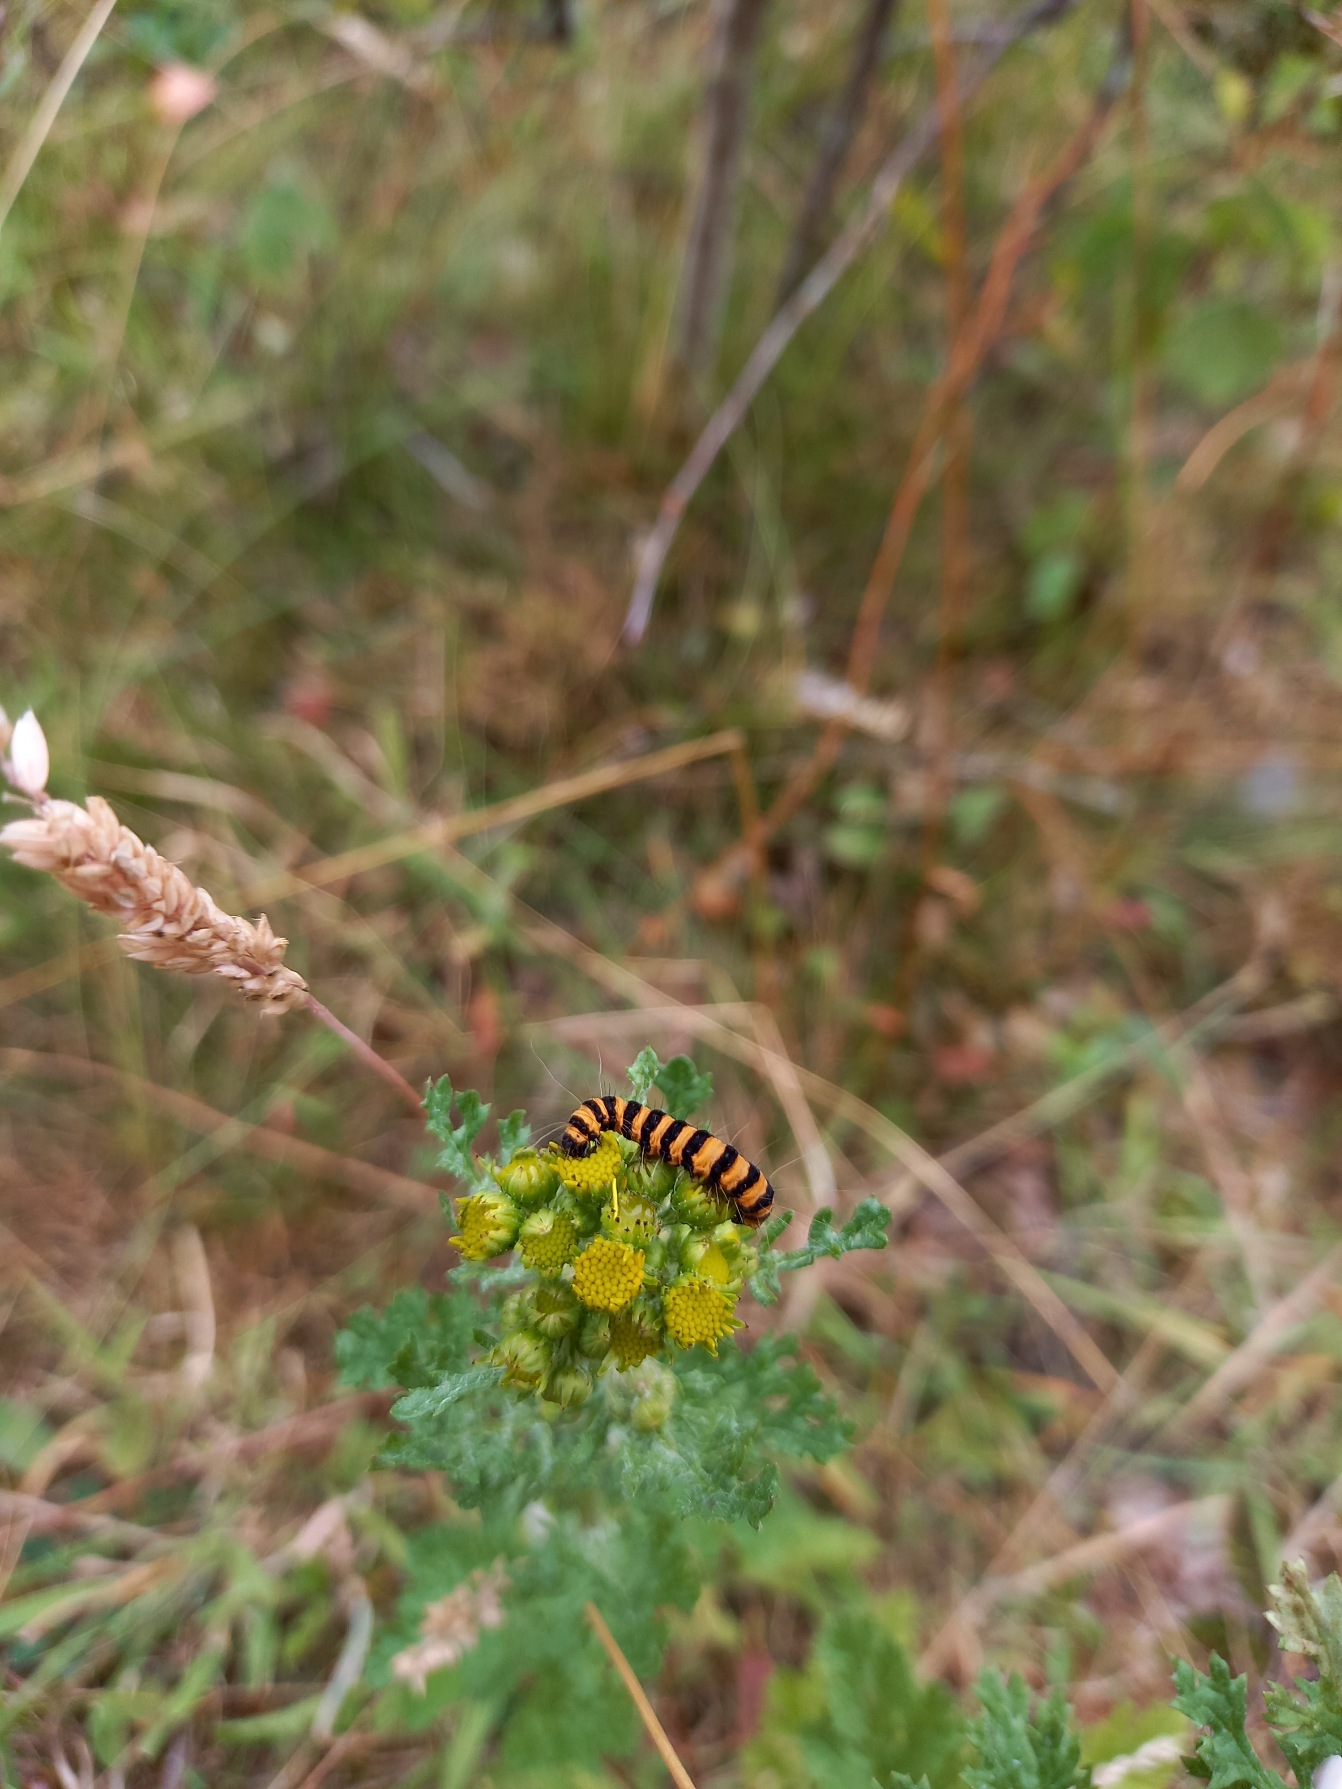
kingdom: Animalia
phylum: Arthropoda
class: Insecta
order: Lepidoptera
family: Erebidae
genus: Tyria
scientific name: Tyria jacobaeae
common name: Blodplet
